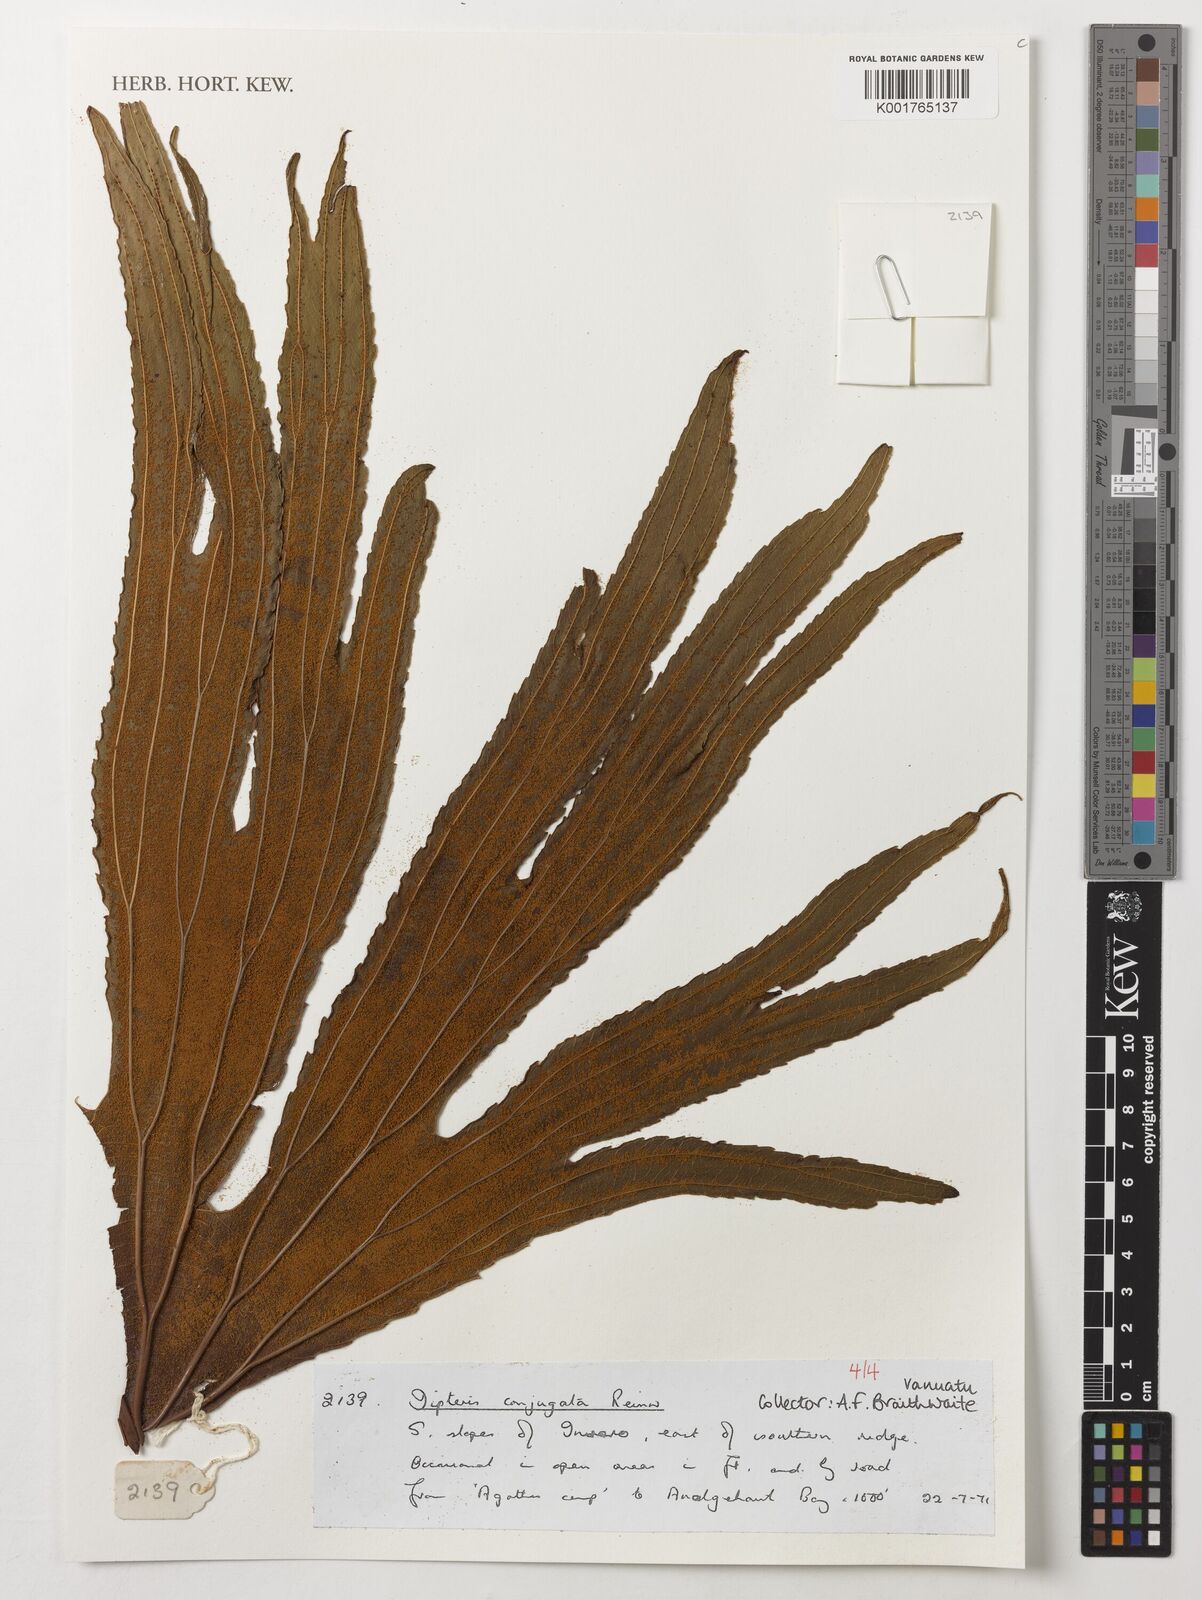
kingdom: Plantae
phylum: Tracheophyta
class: Polypodiopsida
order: Gleicheniales
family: Dipteridaceae
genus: Dipteris
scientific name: Dipteris conjugata
